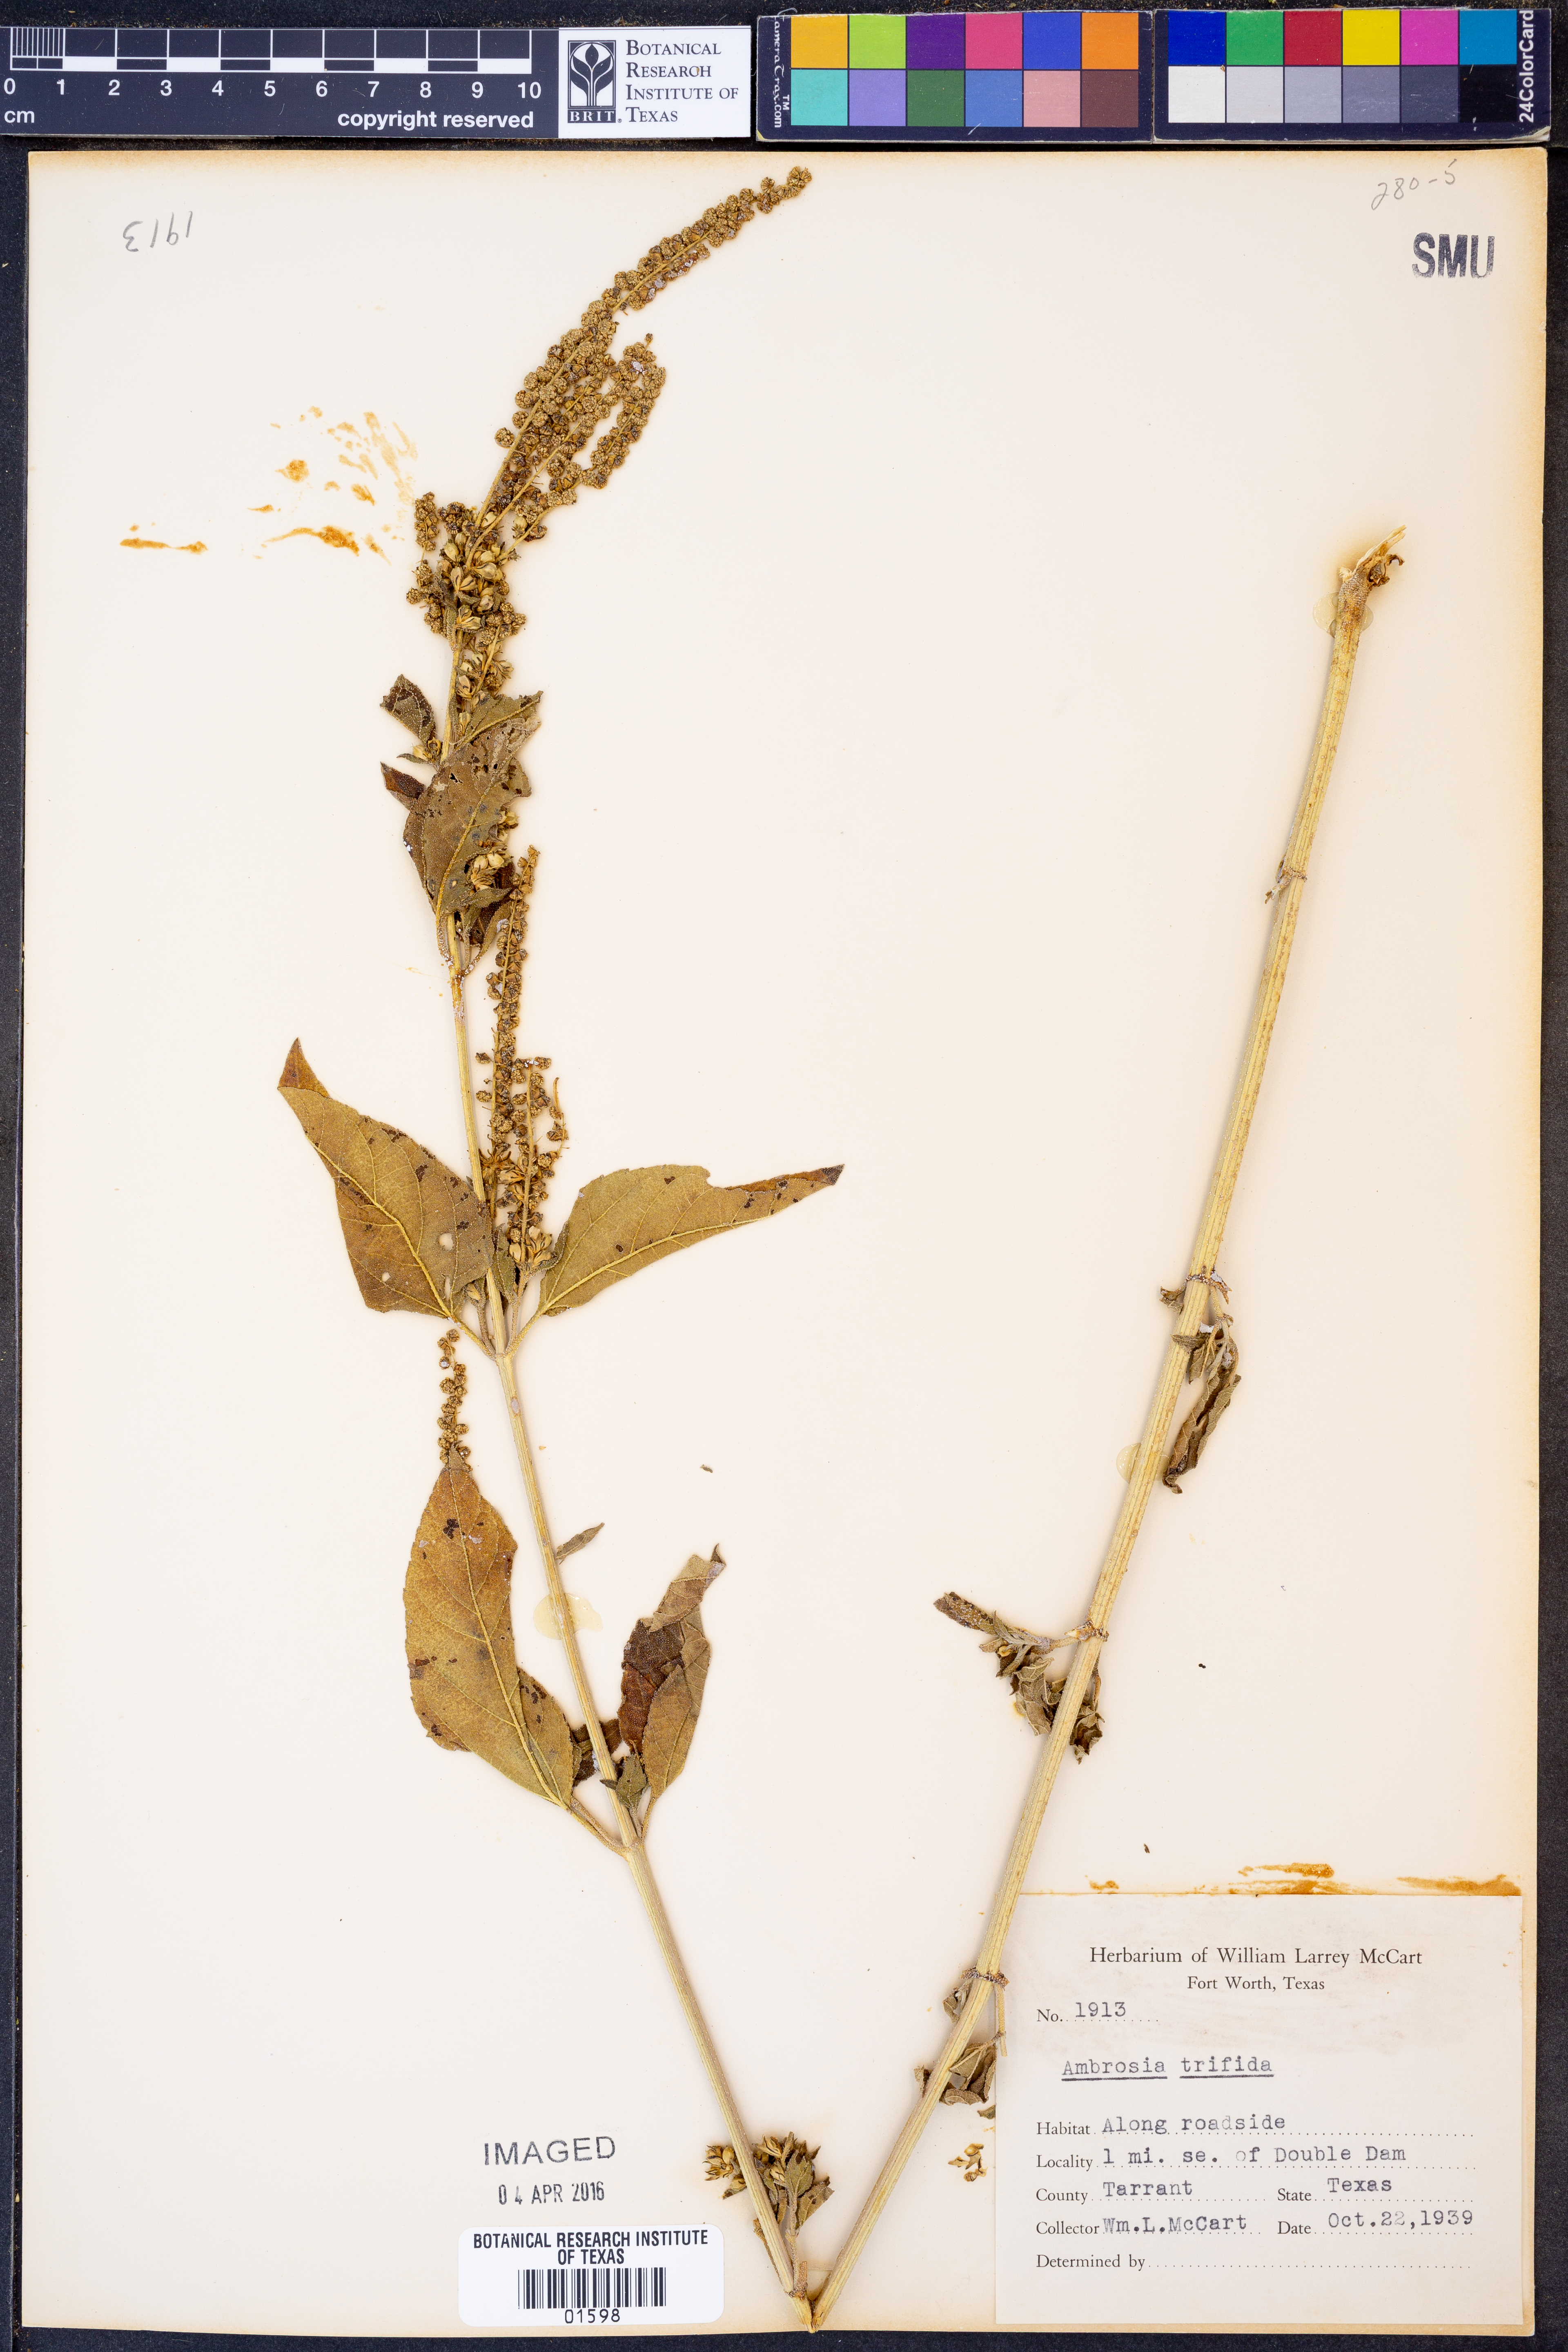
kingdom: Plantae
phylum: Tracheophyta
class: Magnoliopsida
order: Asterales
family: Asteraceae
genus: Ambrosia
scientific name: Ambrosia trifida
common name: Giant ragweed
